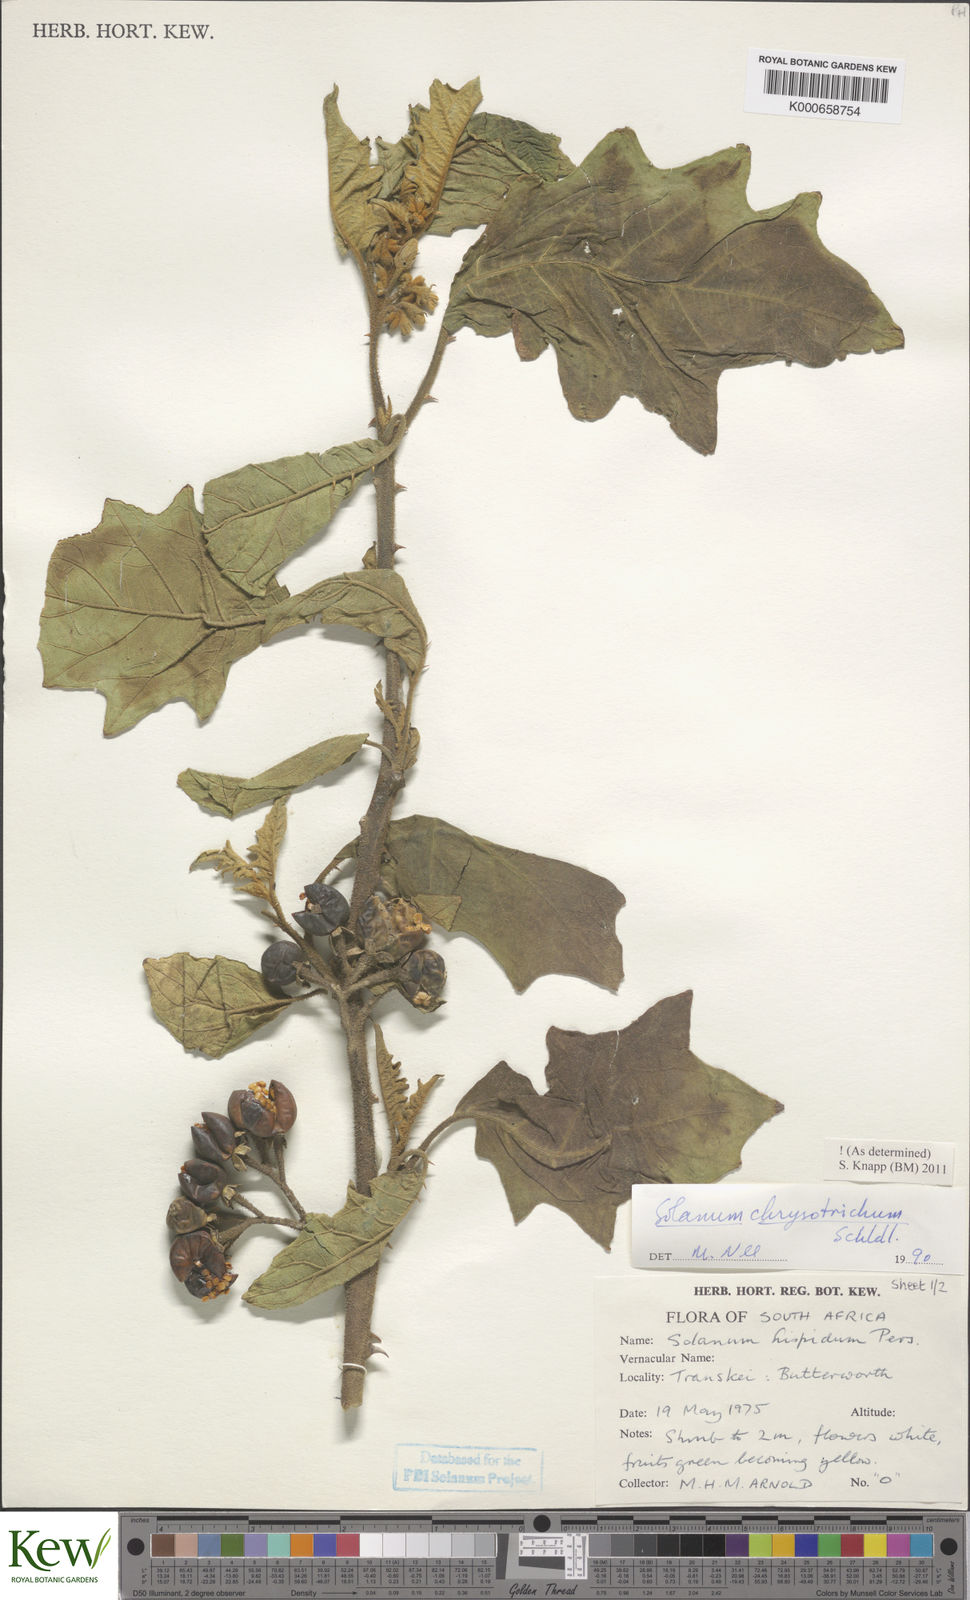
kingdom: Plantae
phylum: Tracheophyta
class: Magnoliopsida
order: Solanales
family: Solanaceae
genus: Solanum
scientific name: Solanum chrysotrichum
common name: Nightshade
